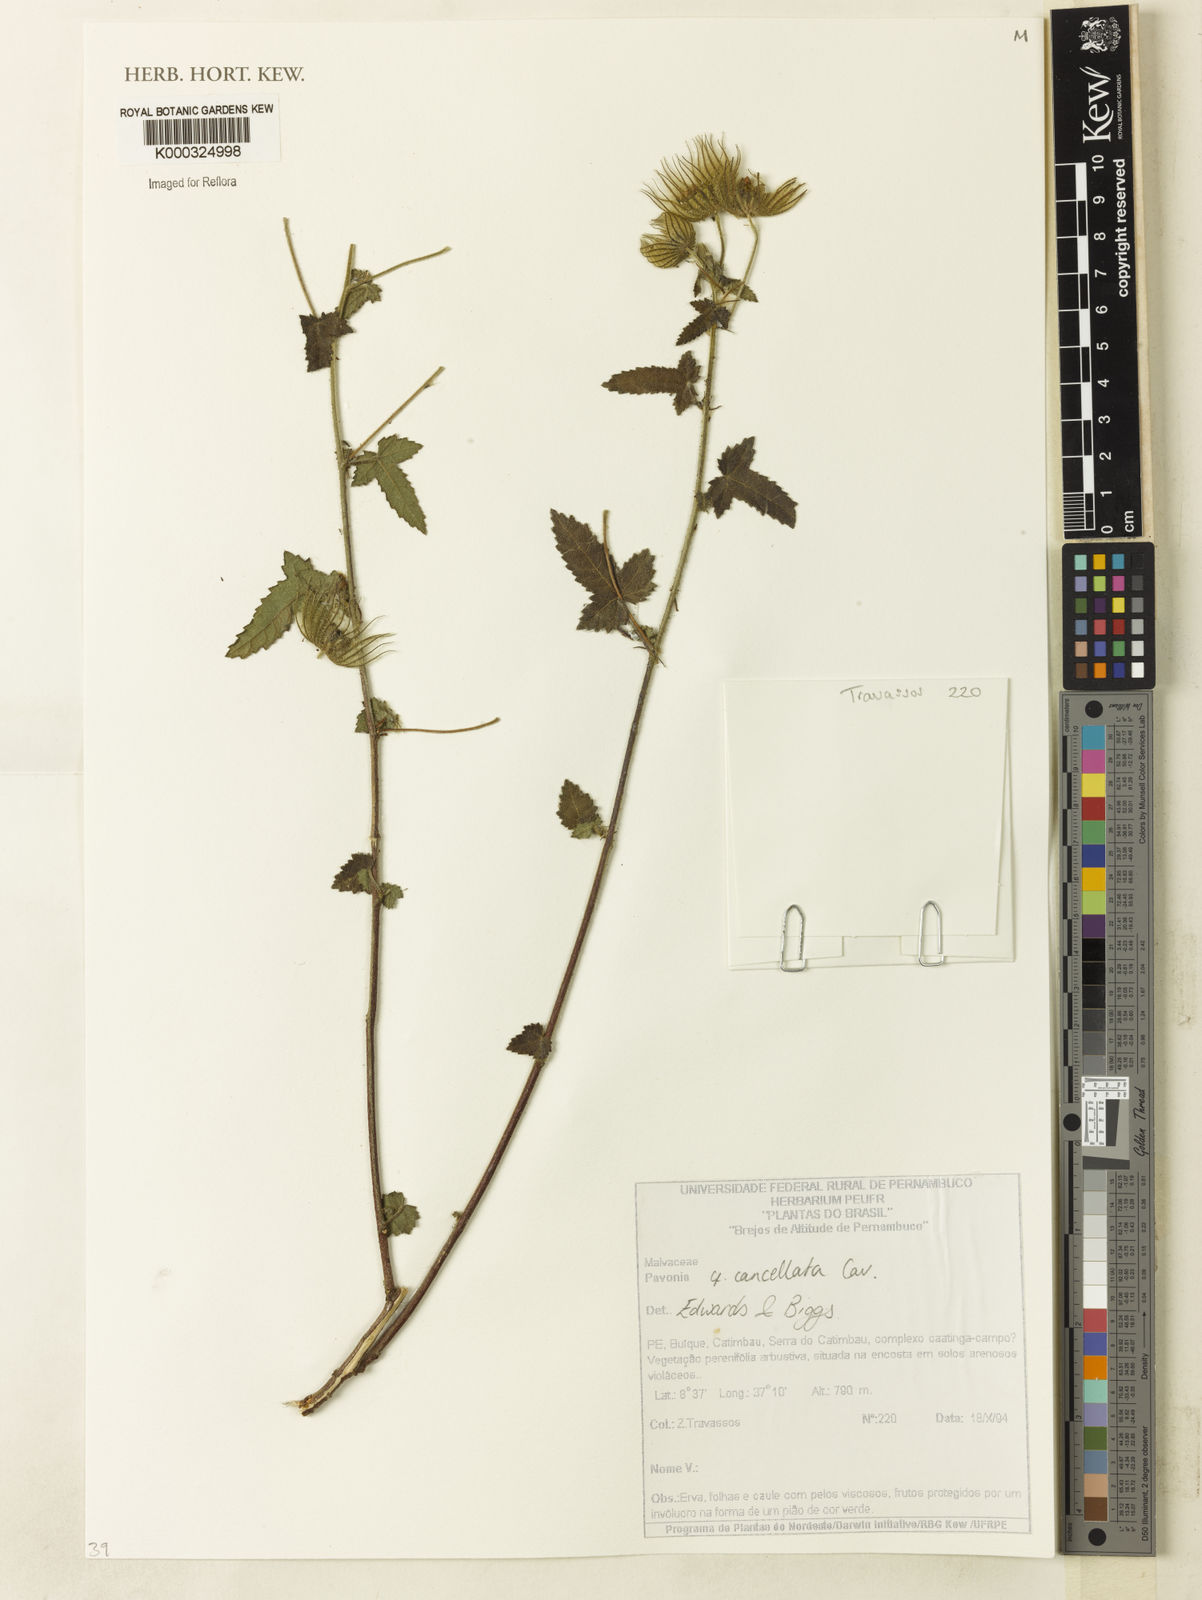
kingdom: Plantae
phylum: Tracheophyta
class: Magnoliopsida
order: Malvales
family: Malvaceae
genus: Pavonia
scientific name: Pavonia cancellata
